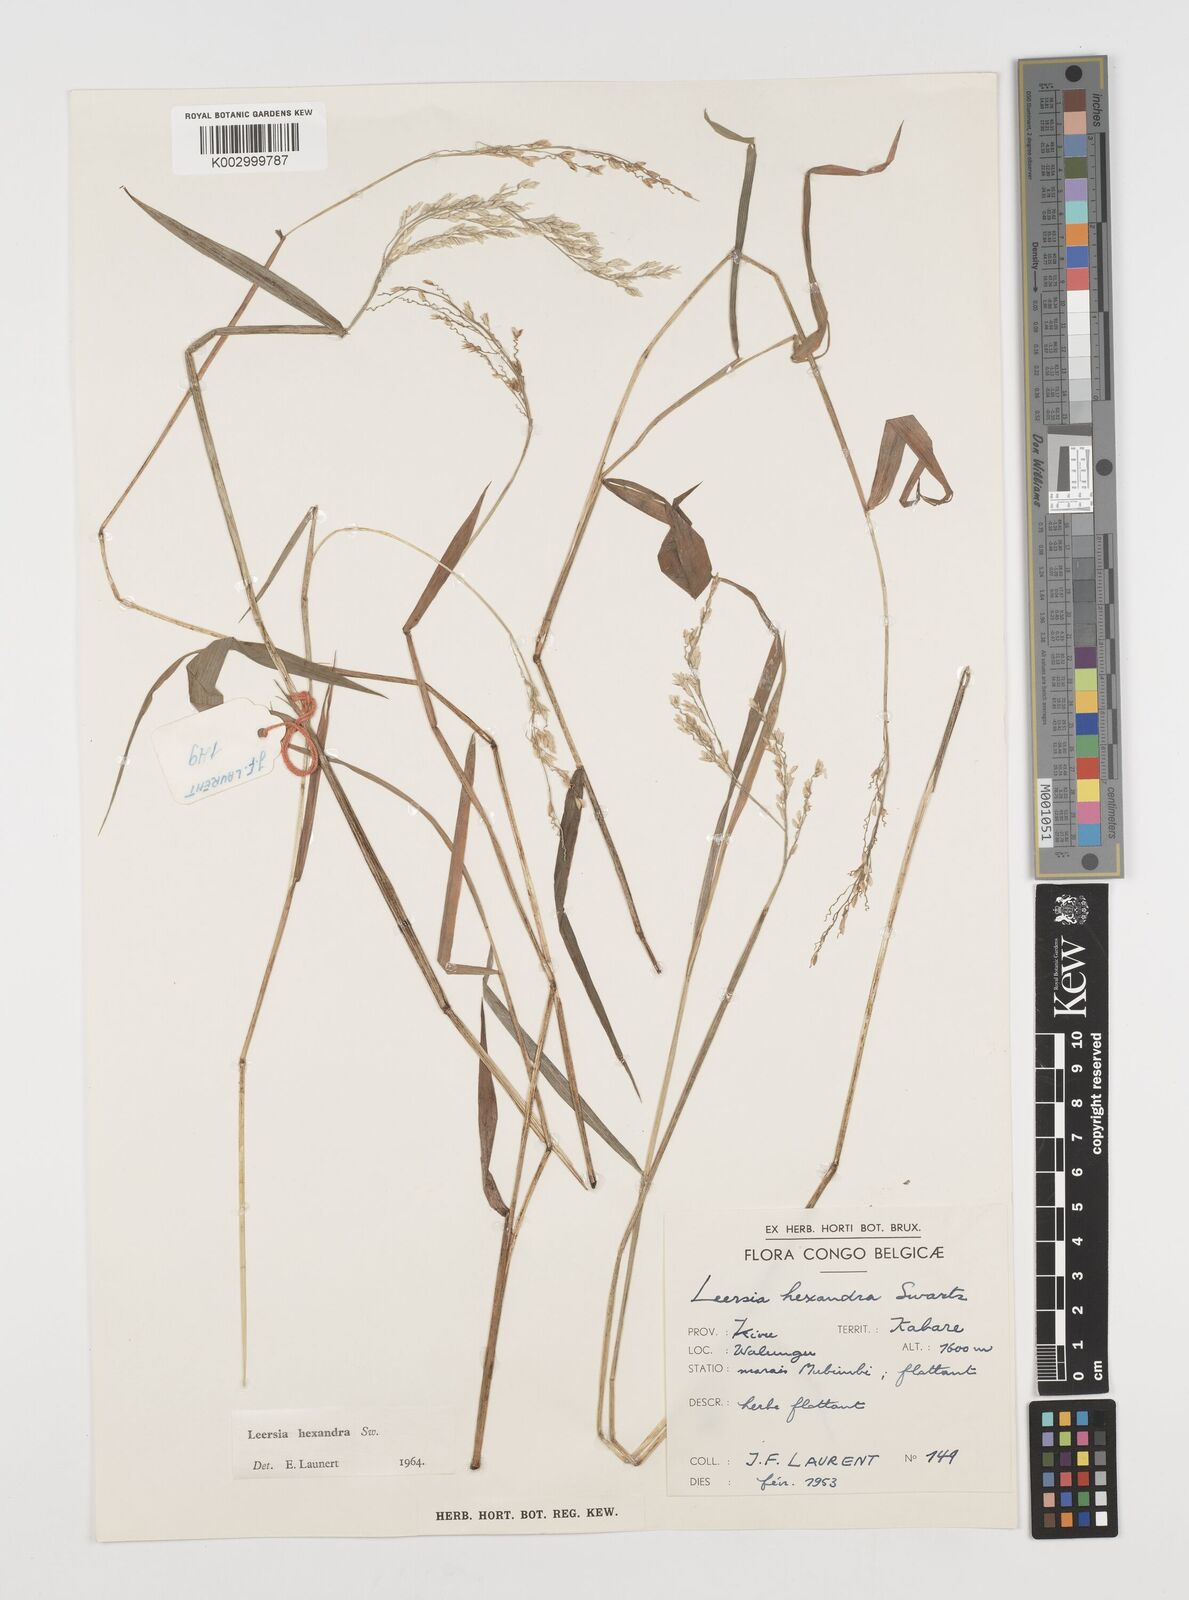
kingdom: Plantae
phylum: Tracheophyta
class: Liliopsida
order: Poales
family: Poaceae
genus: Leersia
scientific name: Leersia hexandra
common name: Southern cut grass
